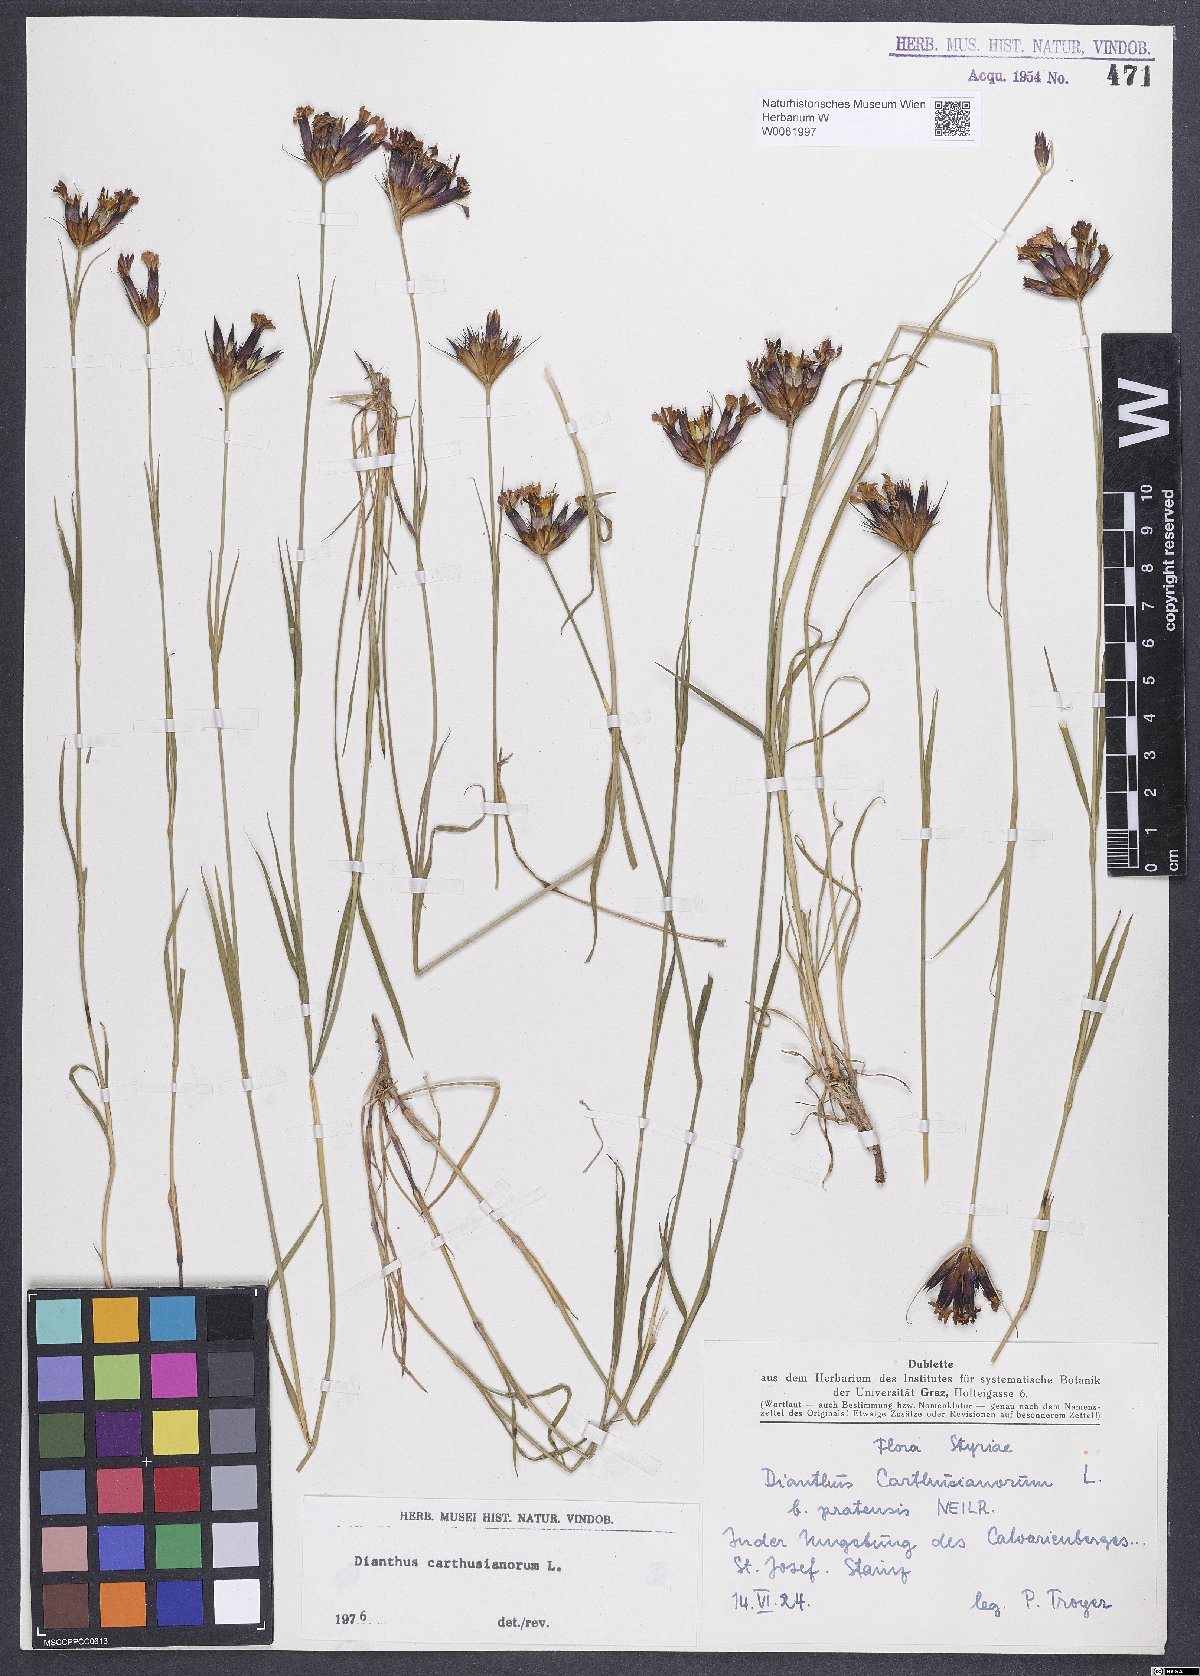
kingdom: Plantae
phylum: Tracheophyta
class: Magnoliopsida
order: Caryophyllales
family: Caryophyllaceae
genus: Dianthus
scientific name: Dianthus carthusianorum
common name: Carthusian pink
